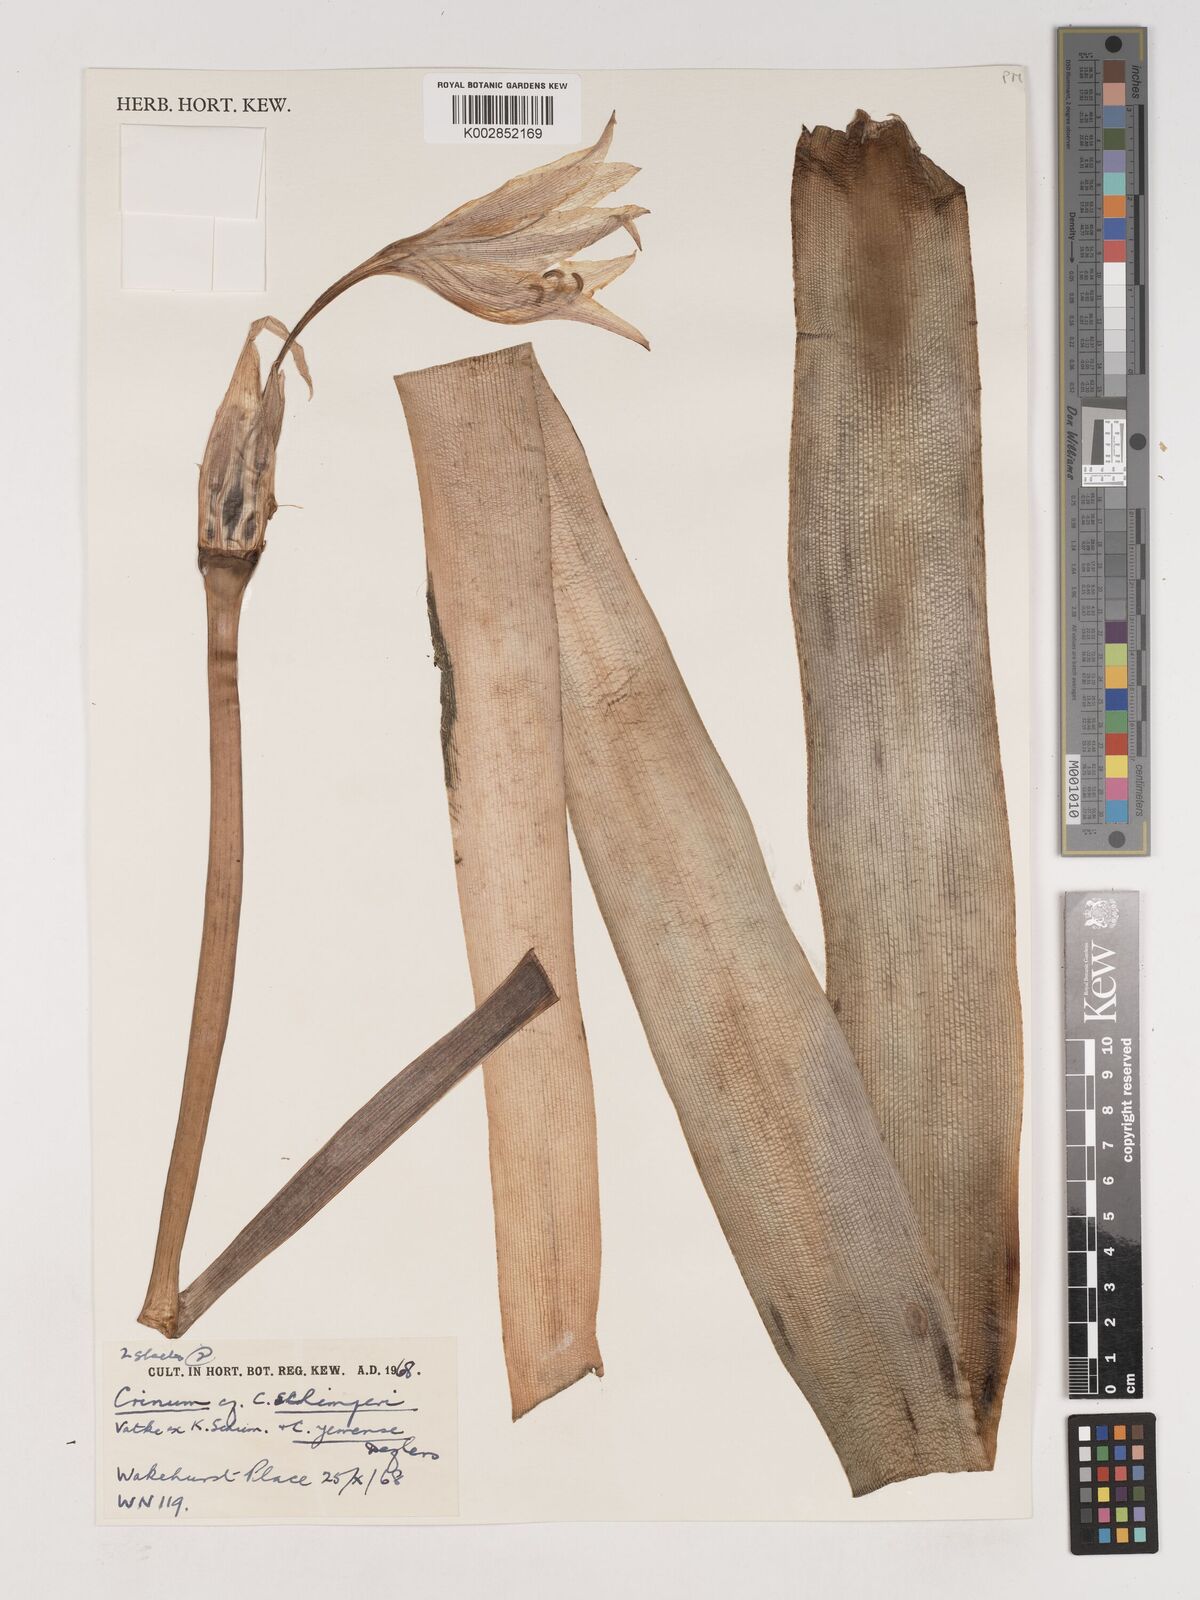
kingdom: Plantae
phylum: Tracheophyta
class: Liliopsida
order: Asparagales
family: Amaryllidaceae
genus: Crinum
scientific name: Crinum abyssinicum
